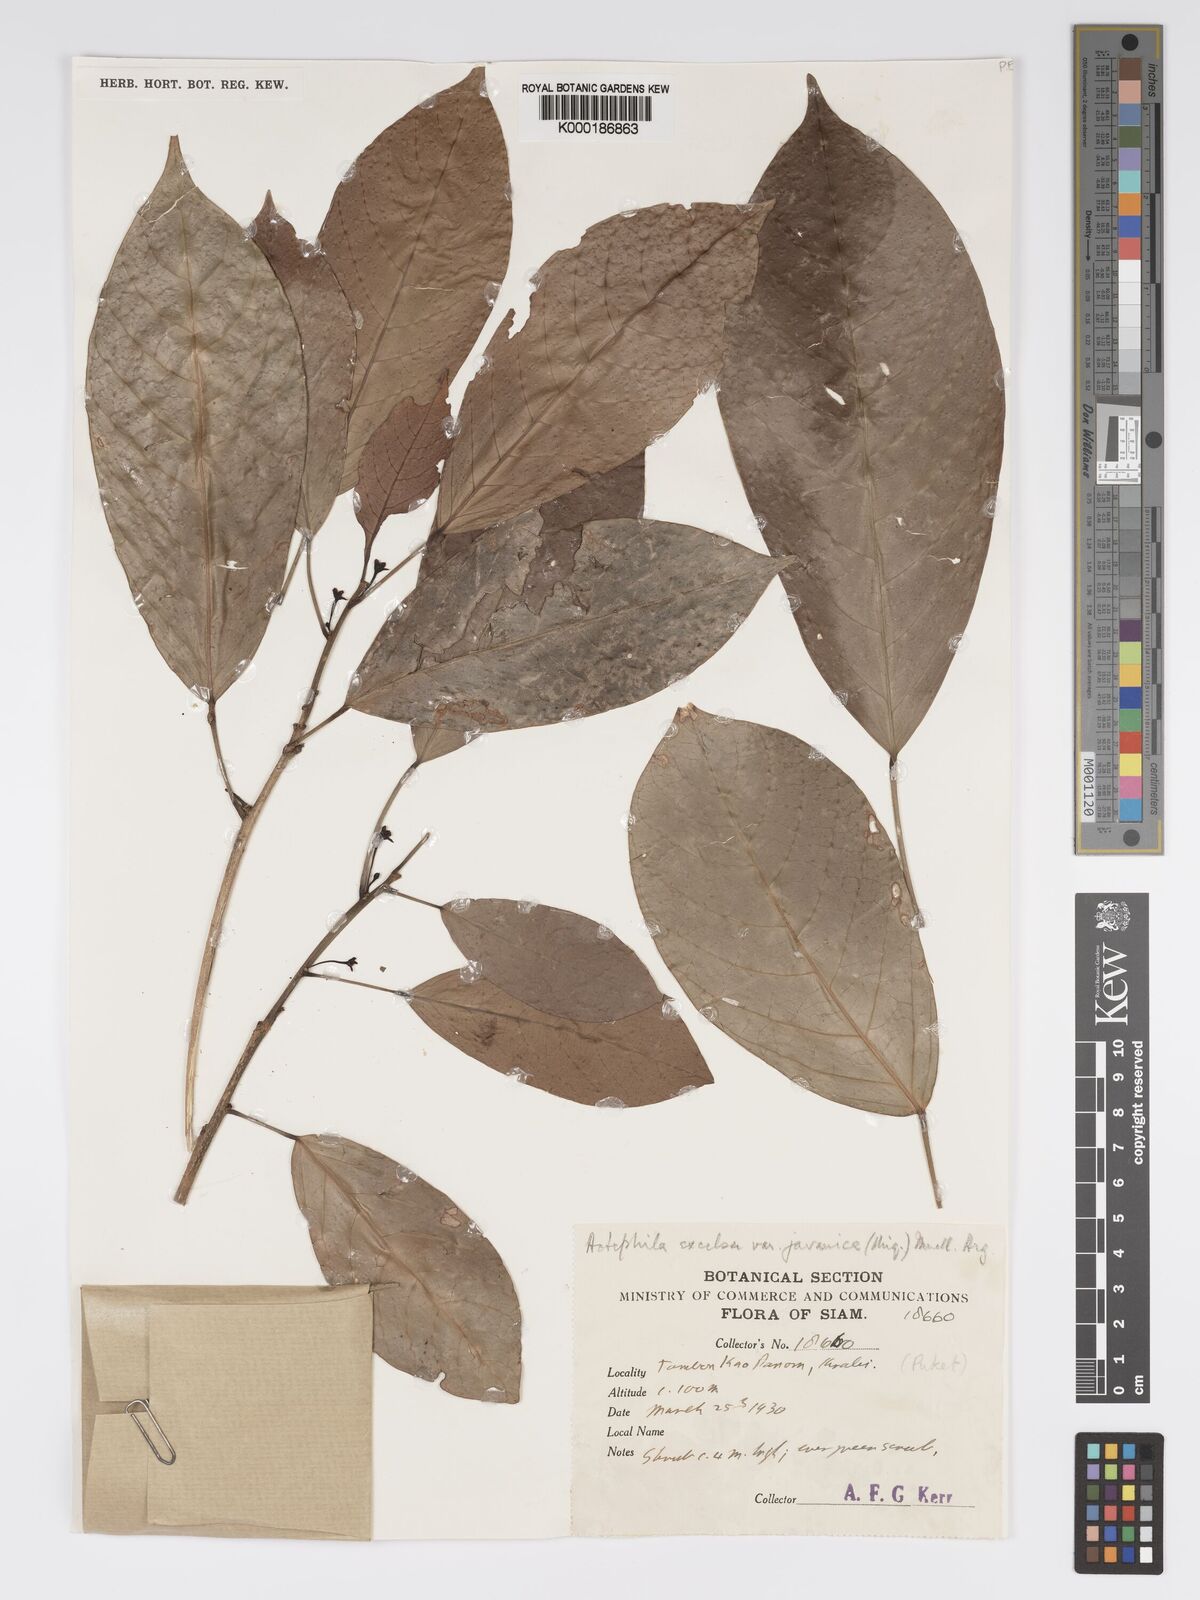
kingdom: Plantae
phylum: Tracheophyta
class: Magnoliopsida
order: Malpighiales
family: Phyllanthaceae
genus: Actephila
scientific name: Actephila
